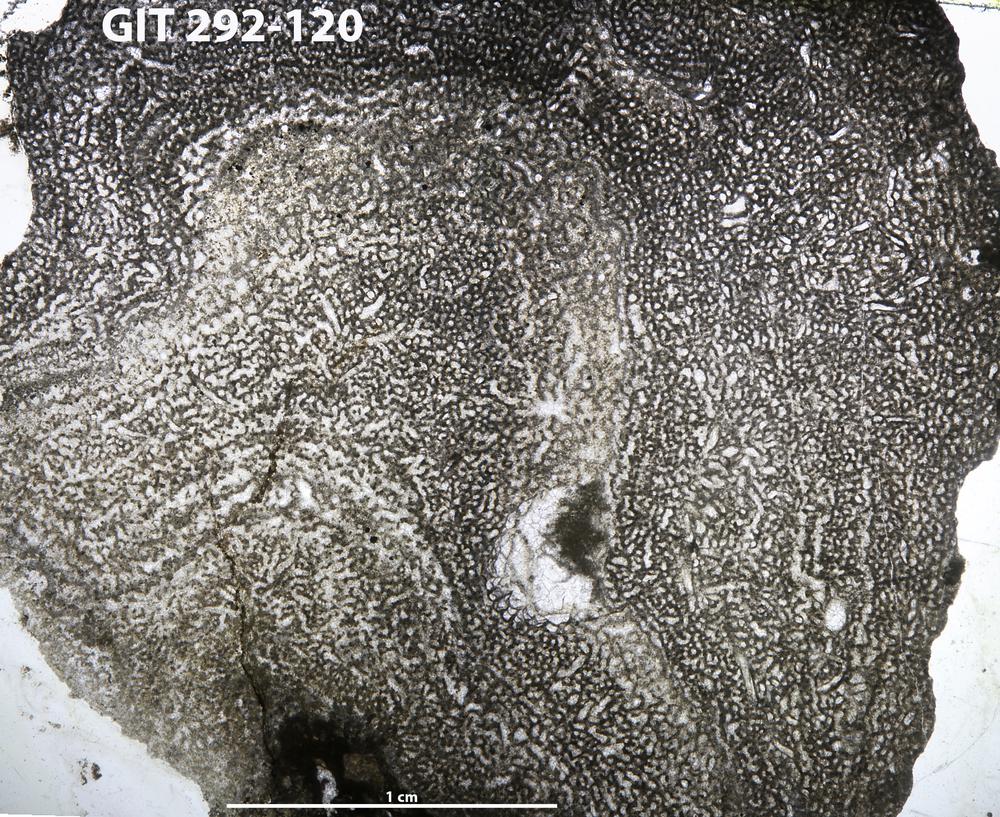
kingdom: Animalia
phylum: Porifera
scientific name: Porifera
